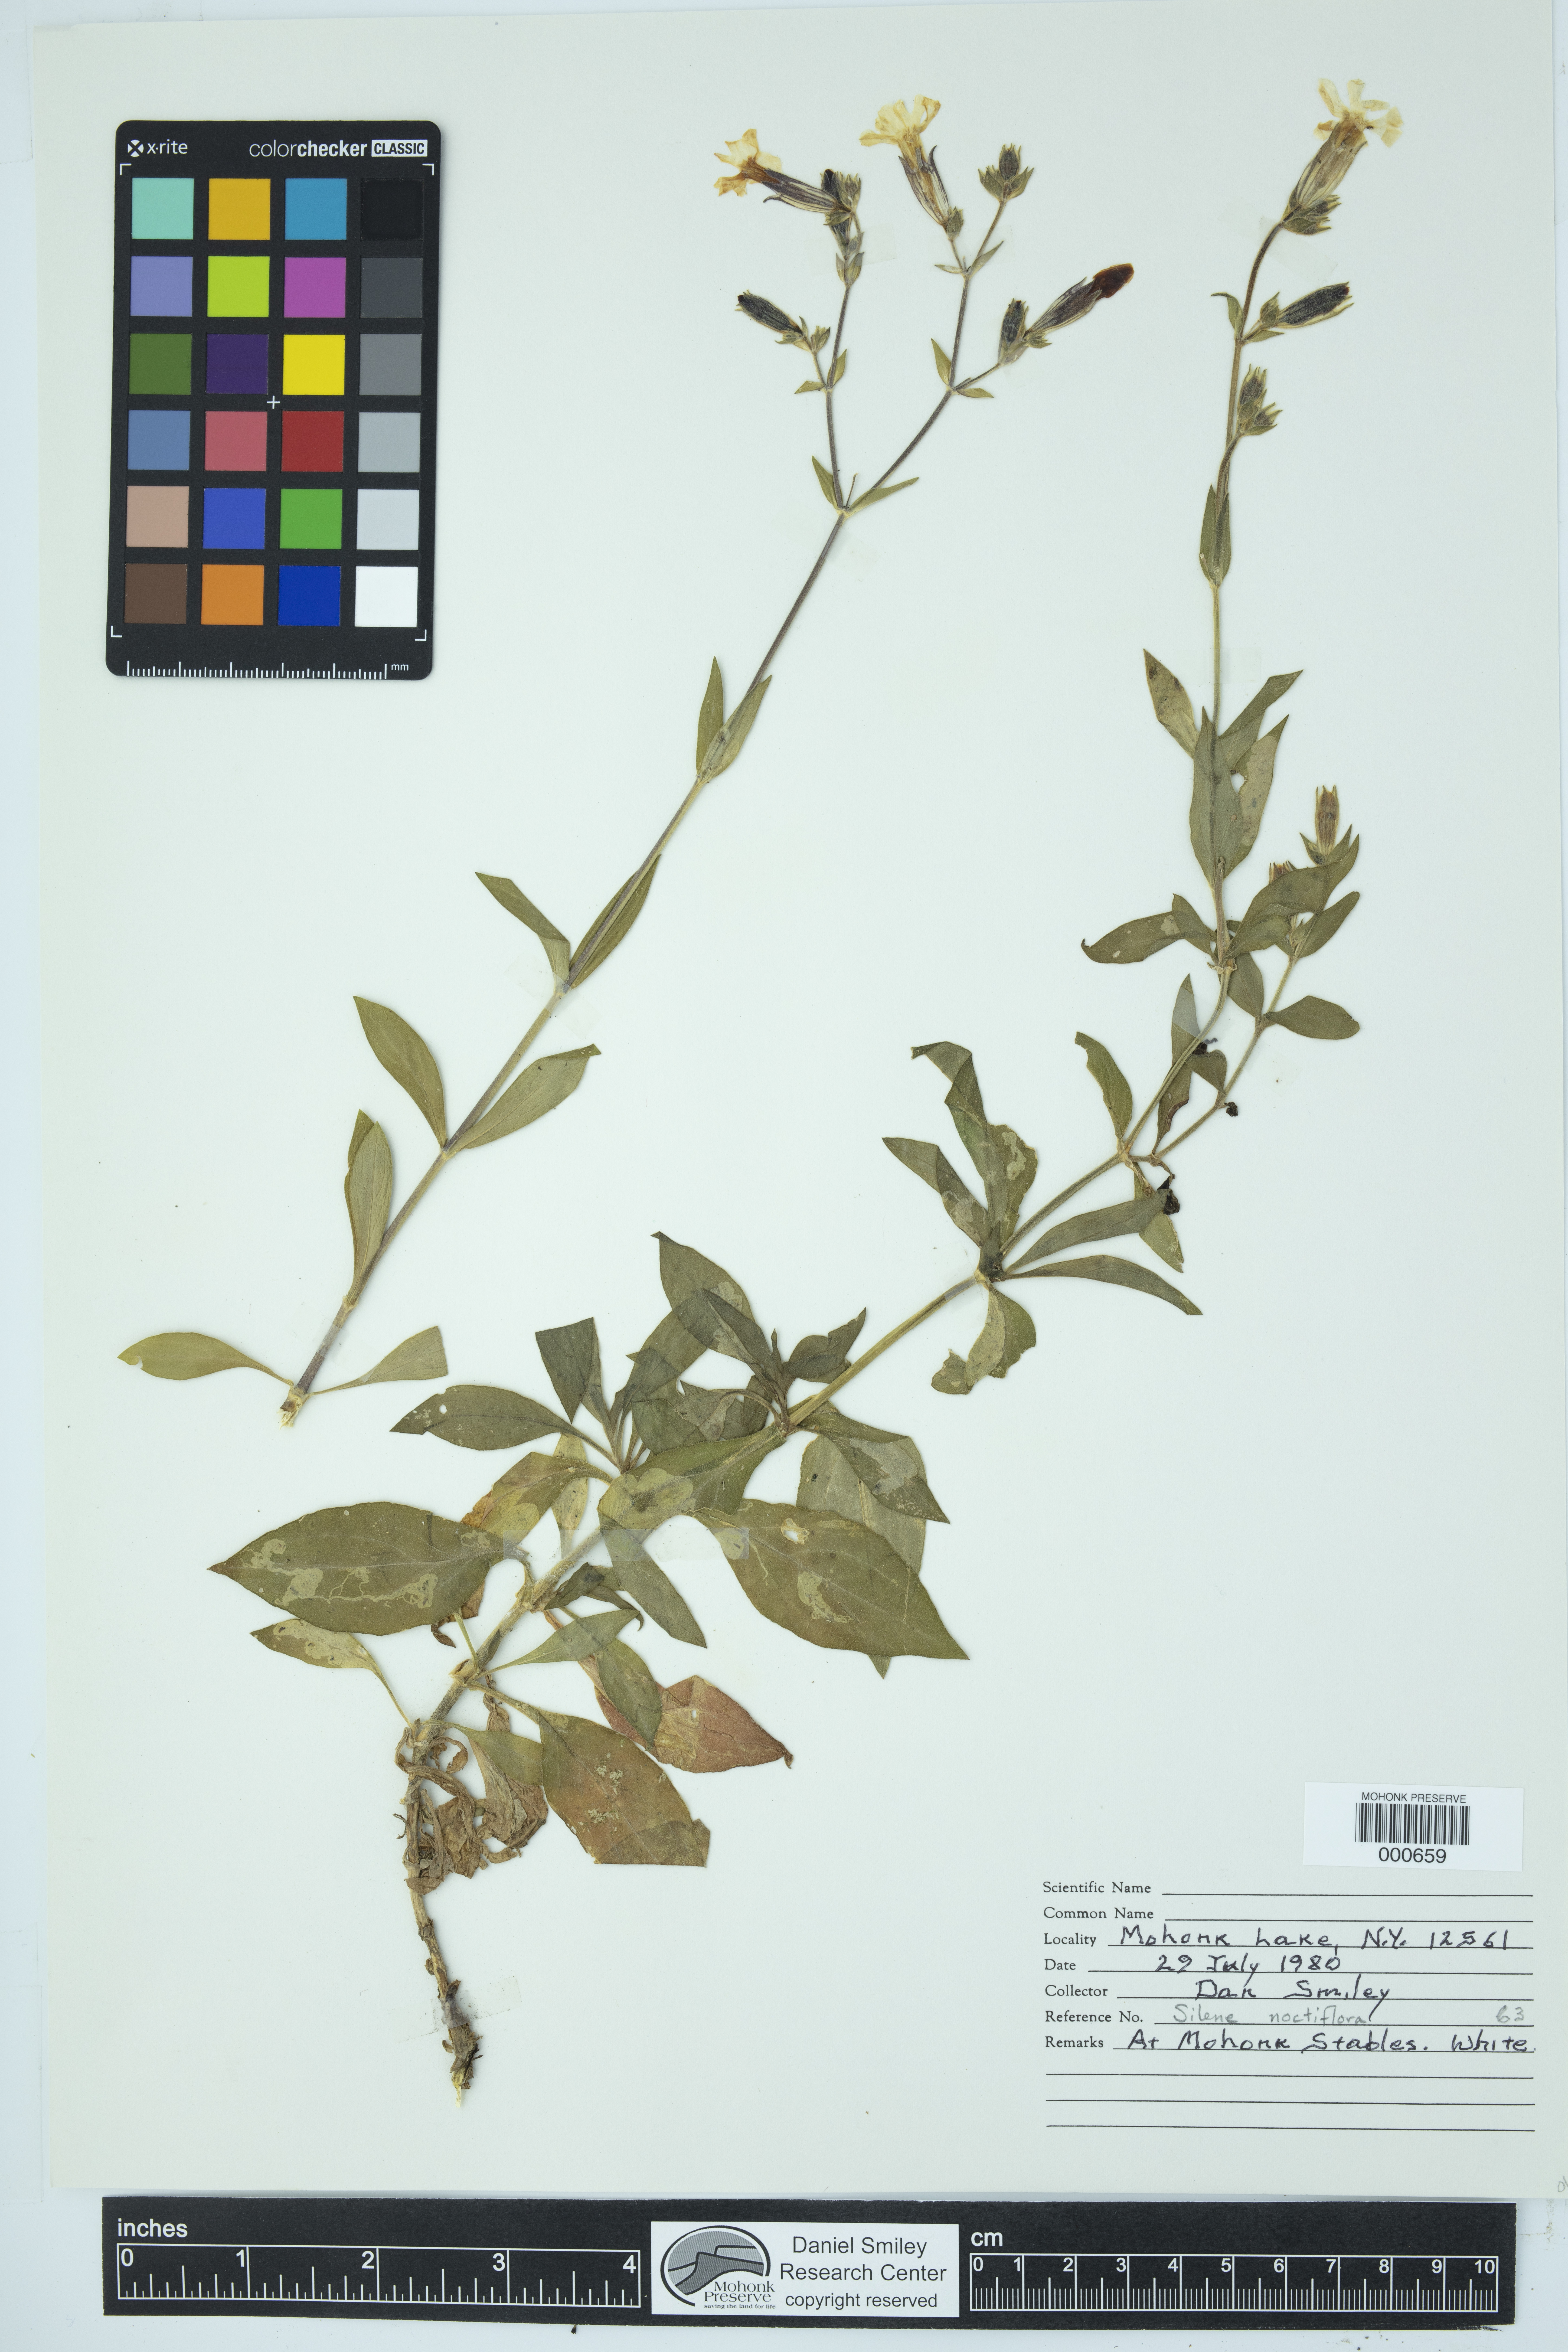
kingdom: Plantae
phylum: Tracheophyta
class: Magnoliopsida
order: Caryophyllales
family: Caryophyllaceae
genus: Silene
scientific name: Silene noctiflora
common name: Night-flowering catchfly
